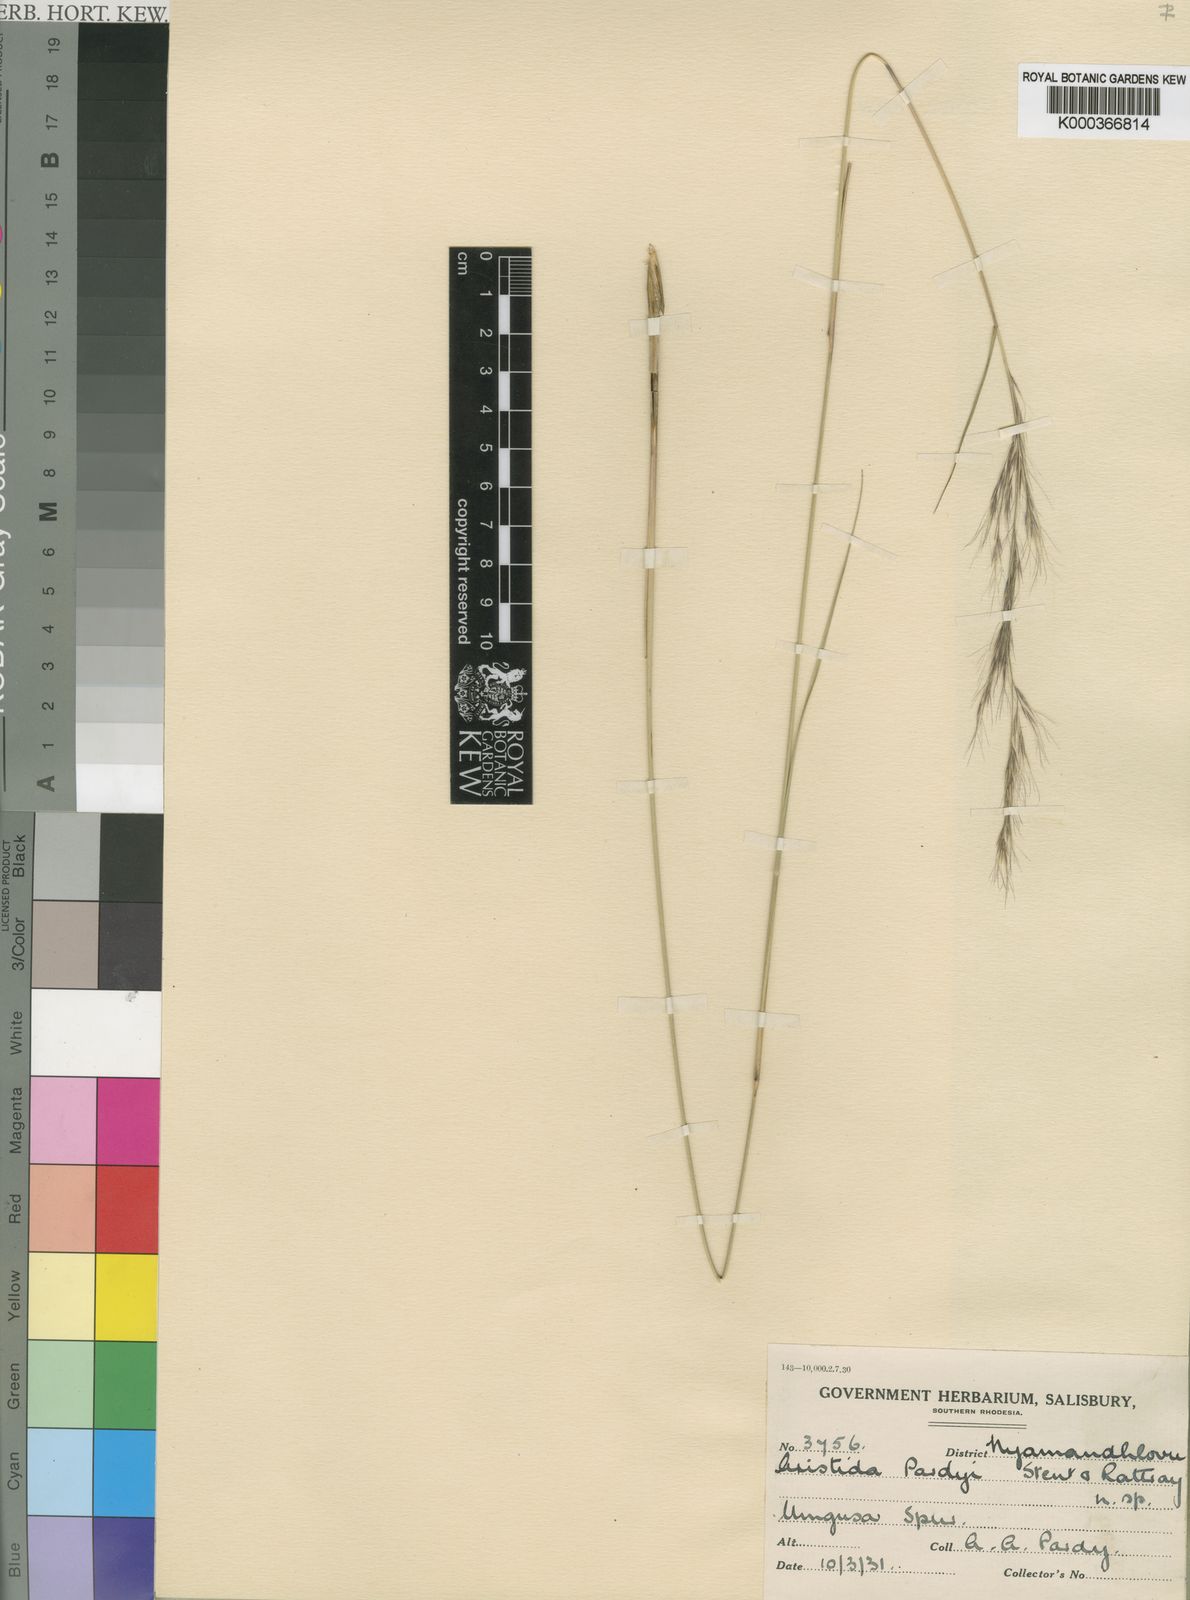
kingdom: Plantae
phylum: Tracheophyta
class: Liliopsida
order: Poales
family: Poaceae
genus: Aristida
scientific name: Aristida junciformis
